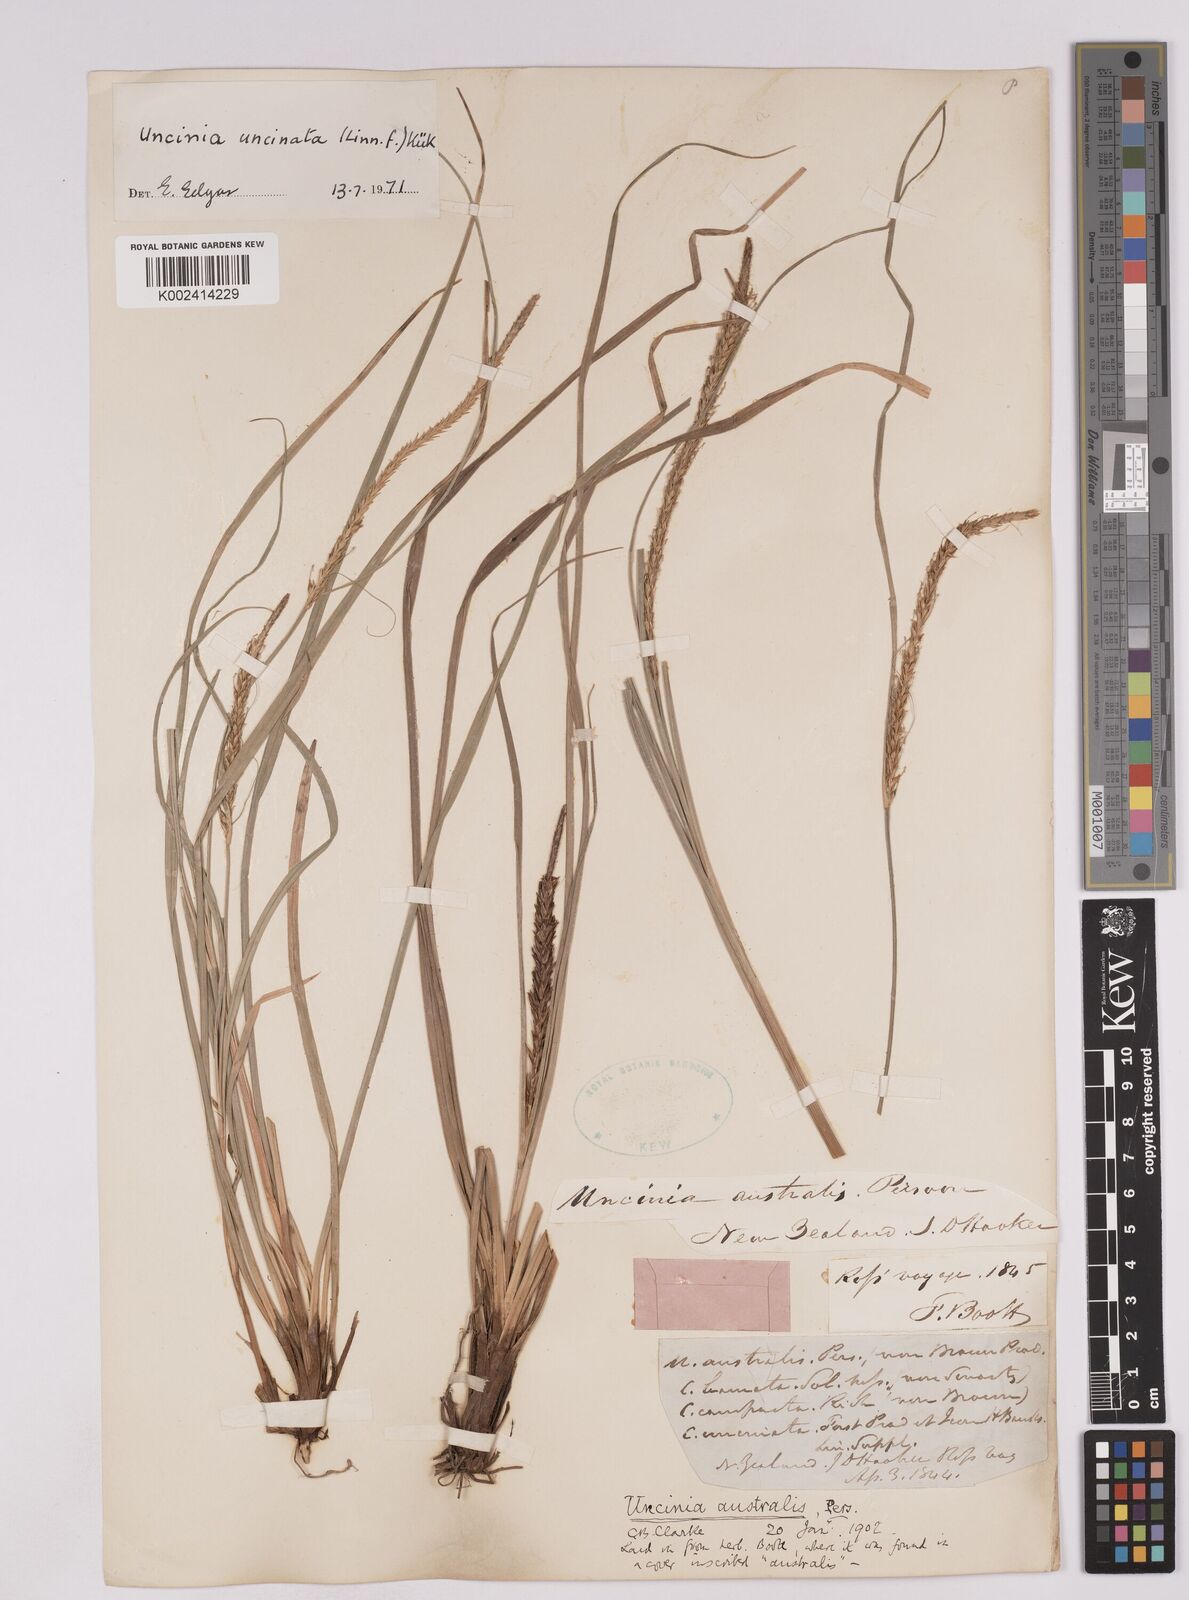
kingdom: Plantae
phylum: Tracheophyta
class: Liliopsida
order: Poales
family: Cyperaceae
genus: Carex
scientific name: Carex uncinata
